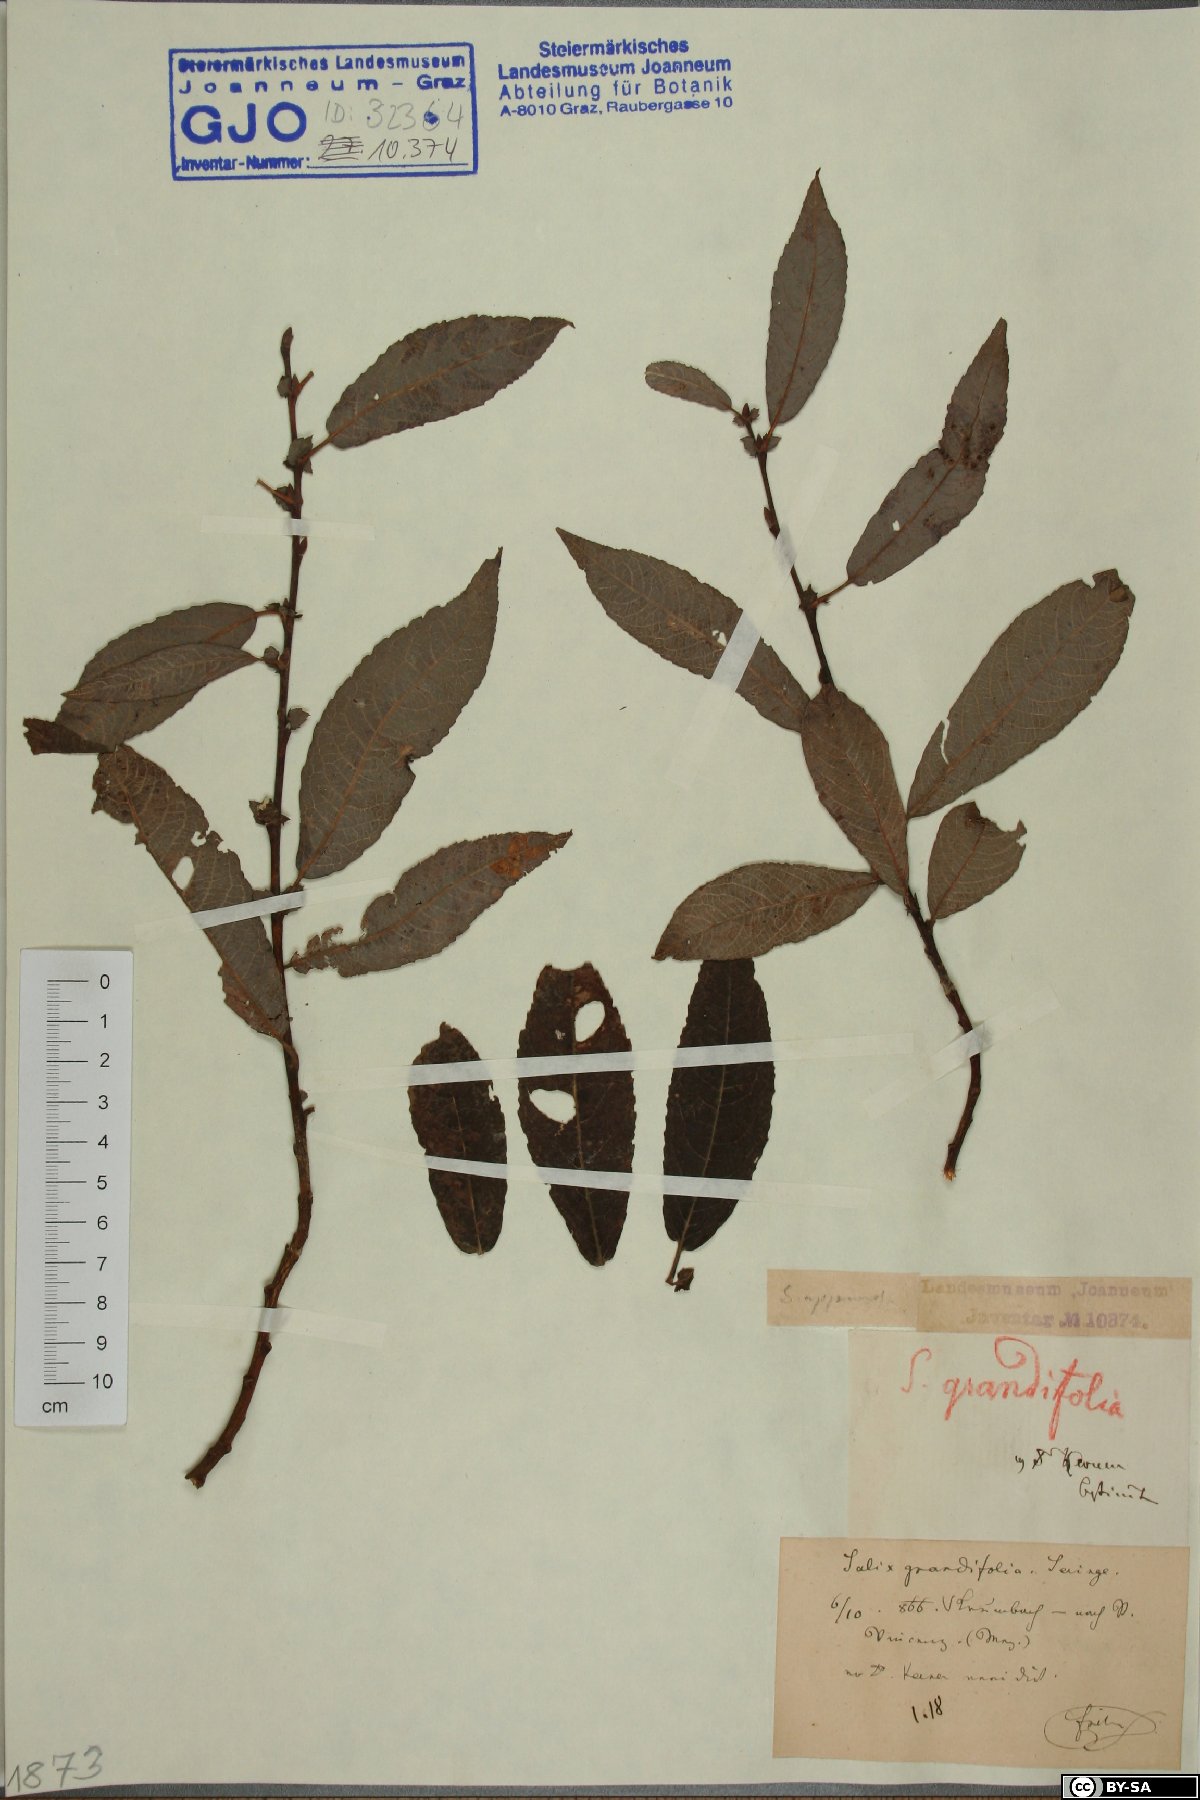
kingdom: Plantae
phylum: Tracheophyta
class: Magnoliopsida
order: Malpighiales
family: Salicaceae
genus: Salix
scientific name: Salix appendiculata
